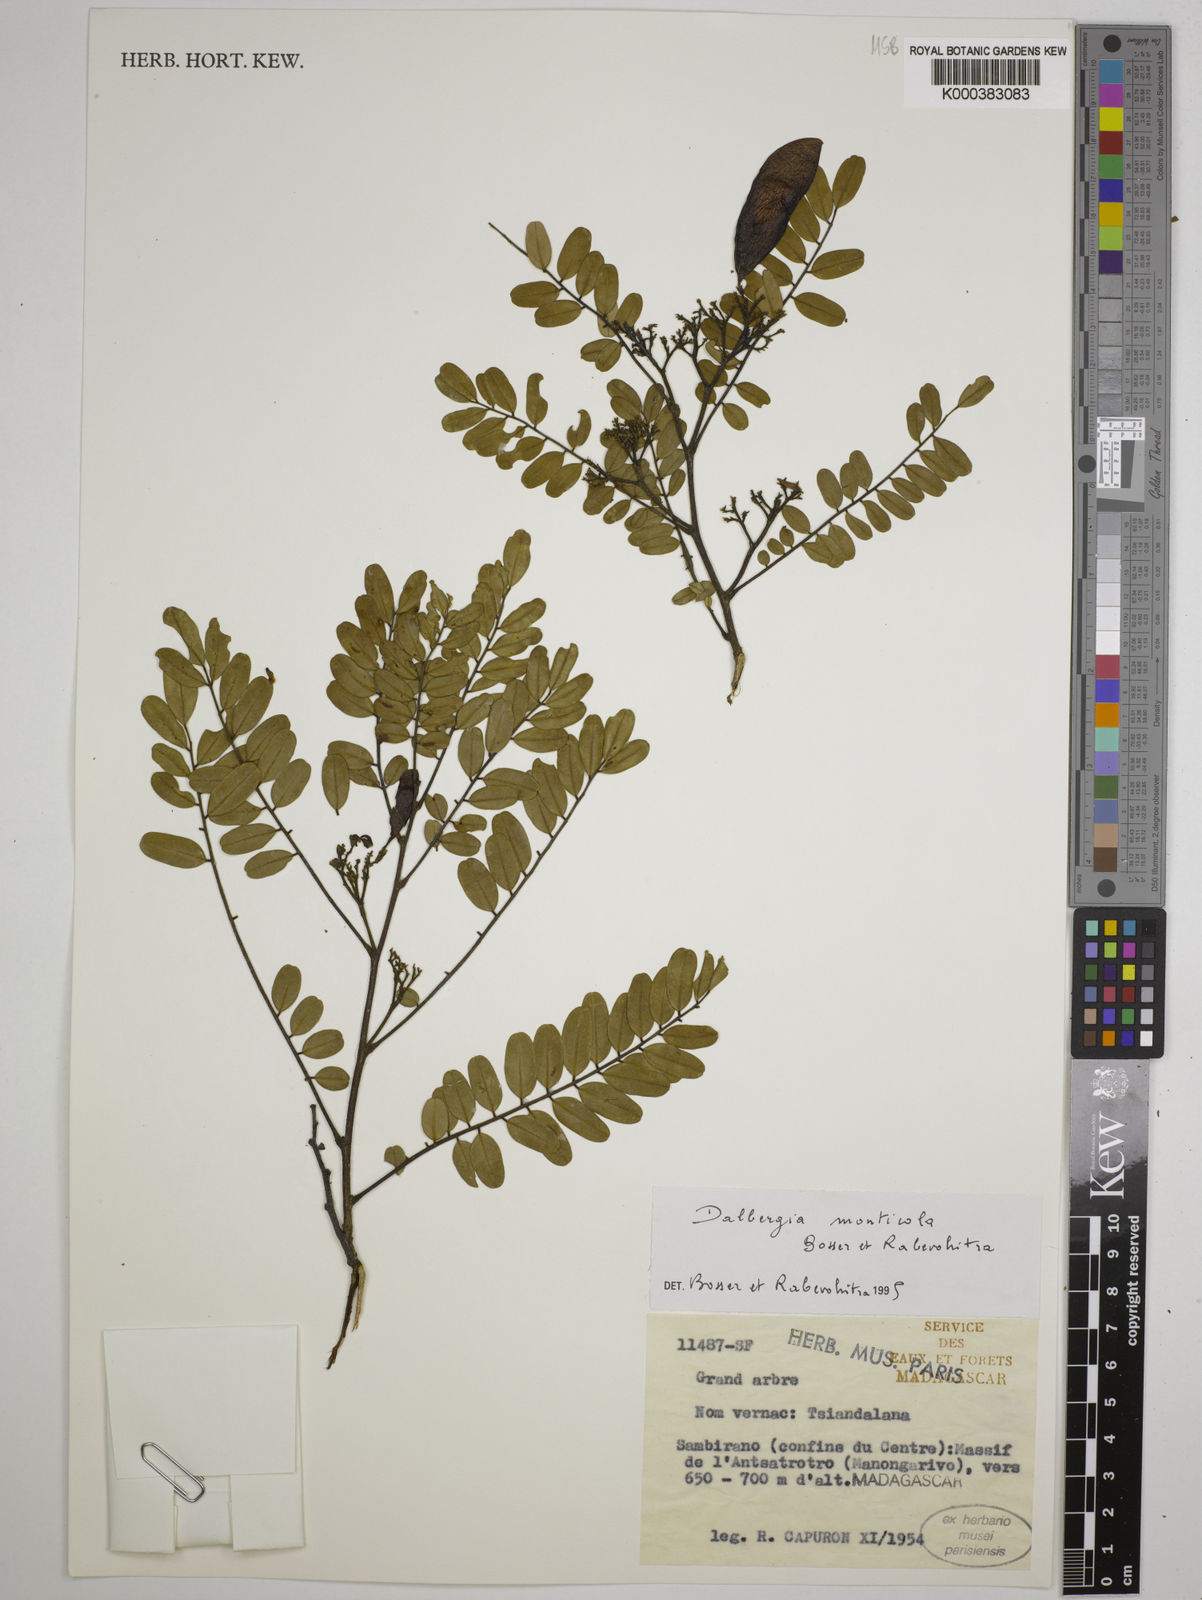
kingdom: Plantae
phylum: Tracheophyta
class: Magnoliopsida
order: Fabales
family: Fabaceae
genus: Dalbergia
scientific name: Dalbergia monticola
